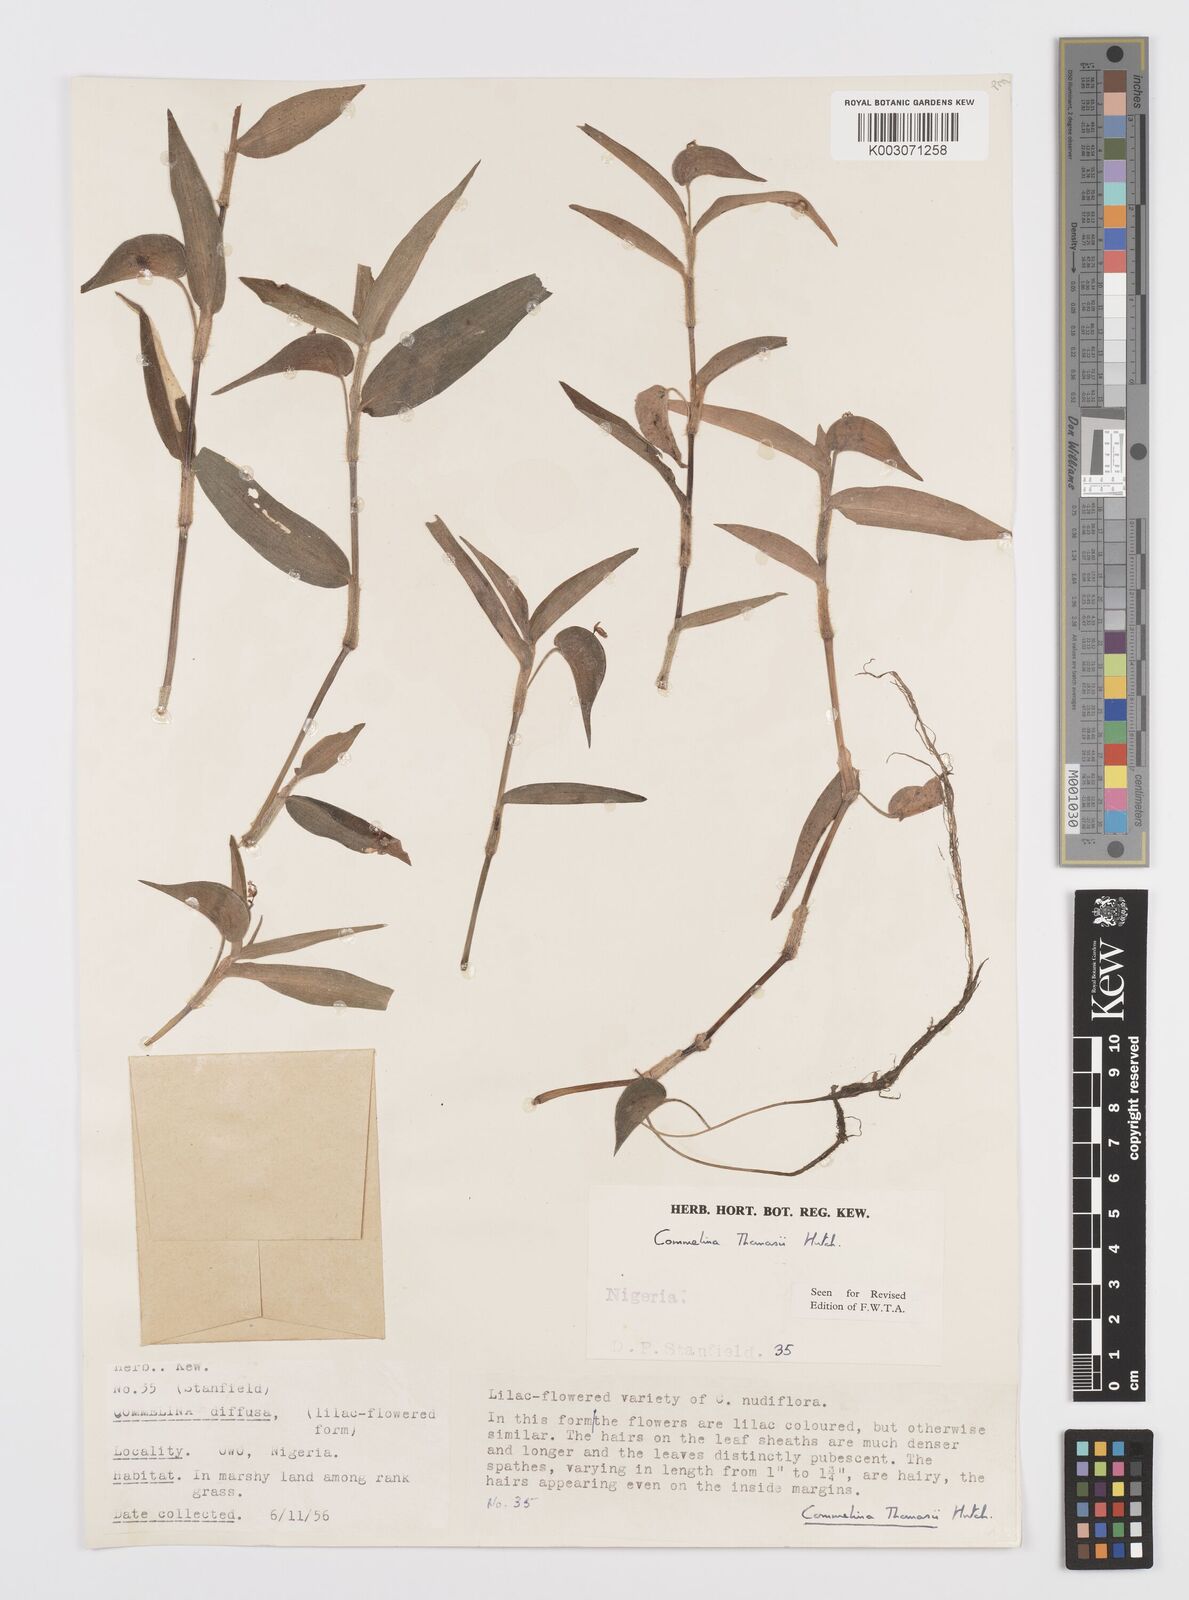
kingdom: Plantae
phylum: Tracheophyta
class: Liliopsida
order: Commelinales
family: Commelinaceae
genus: Commelina
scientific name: Commelina acutispatha
